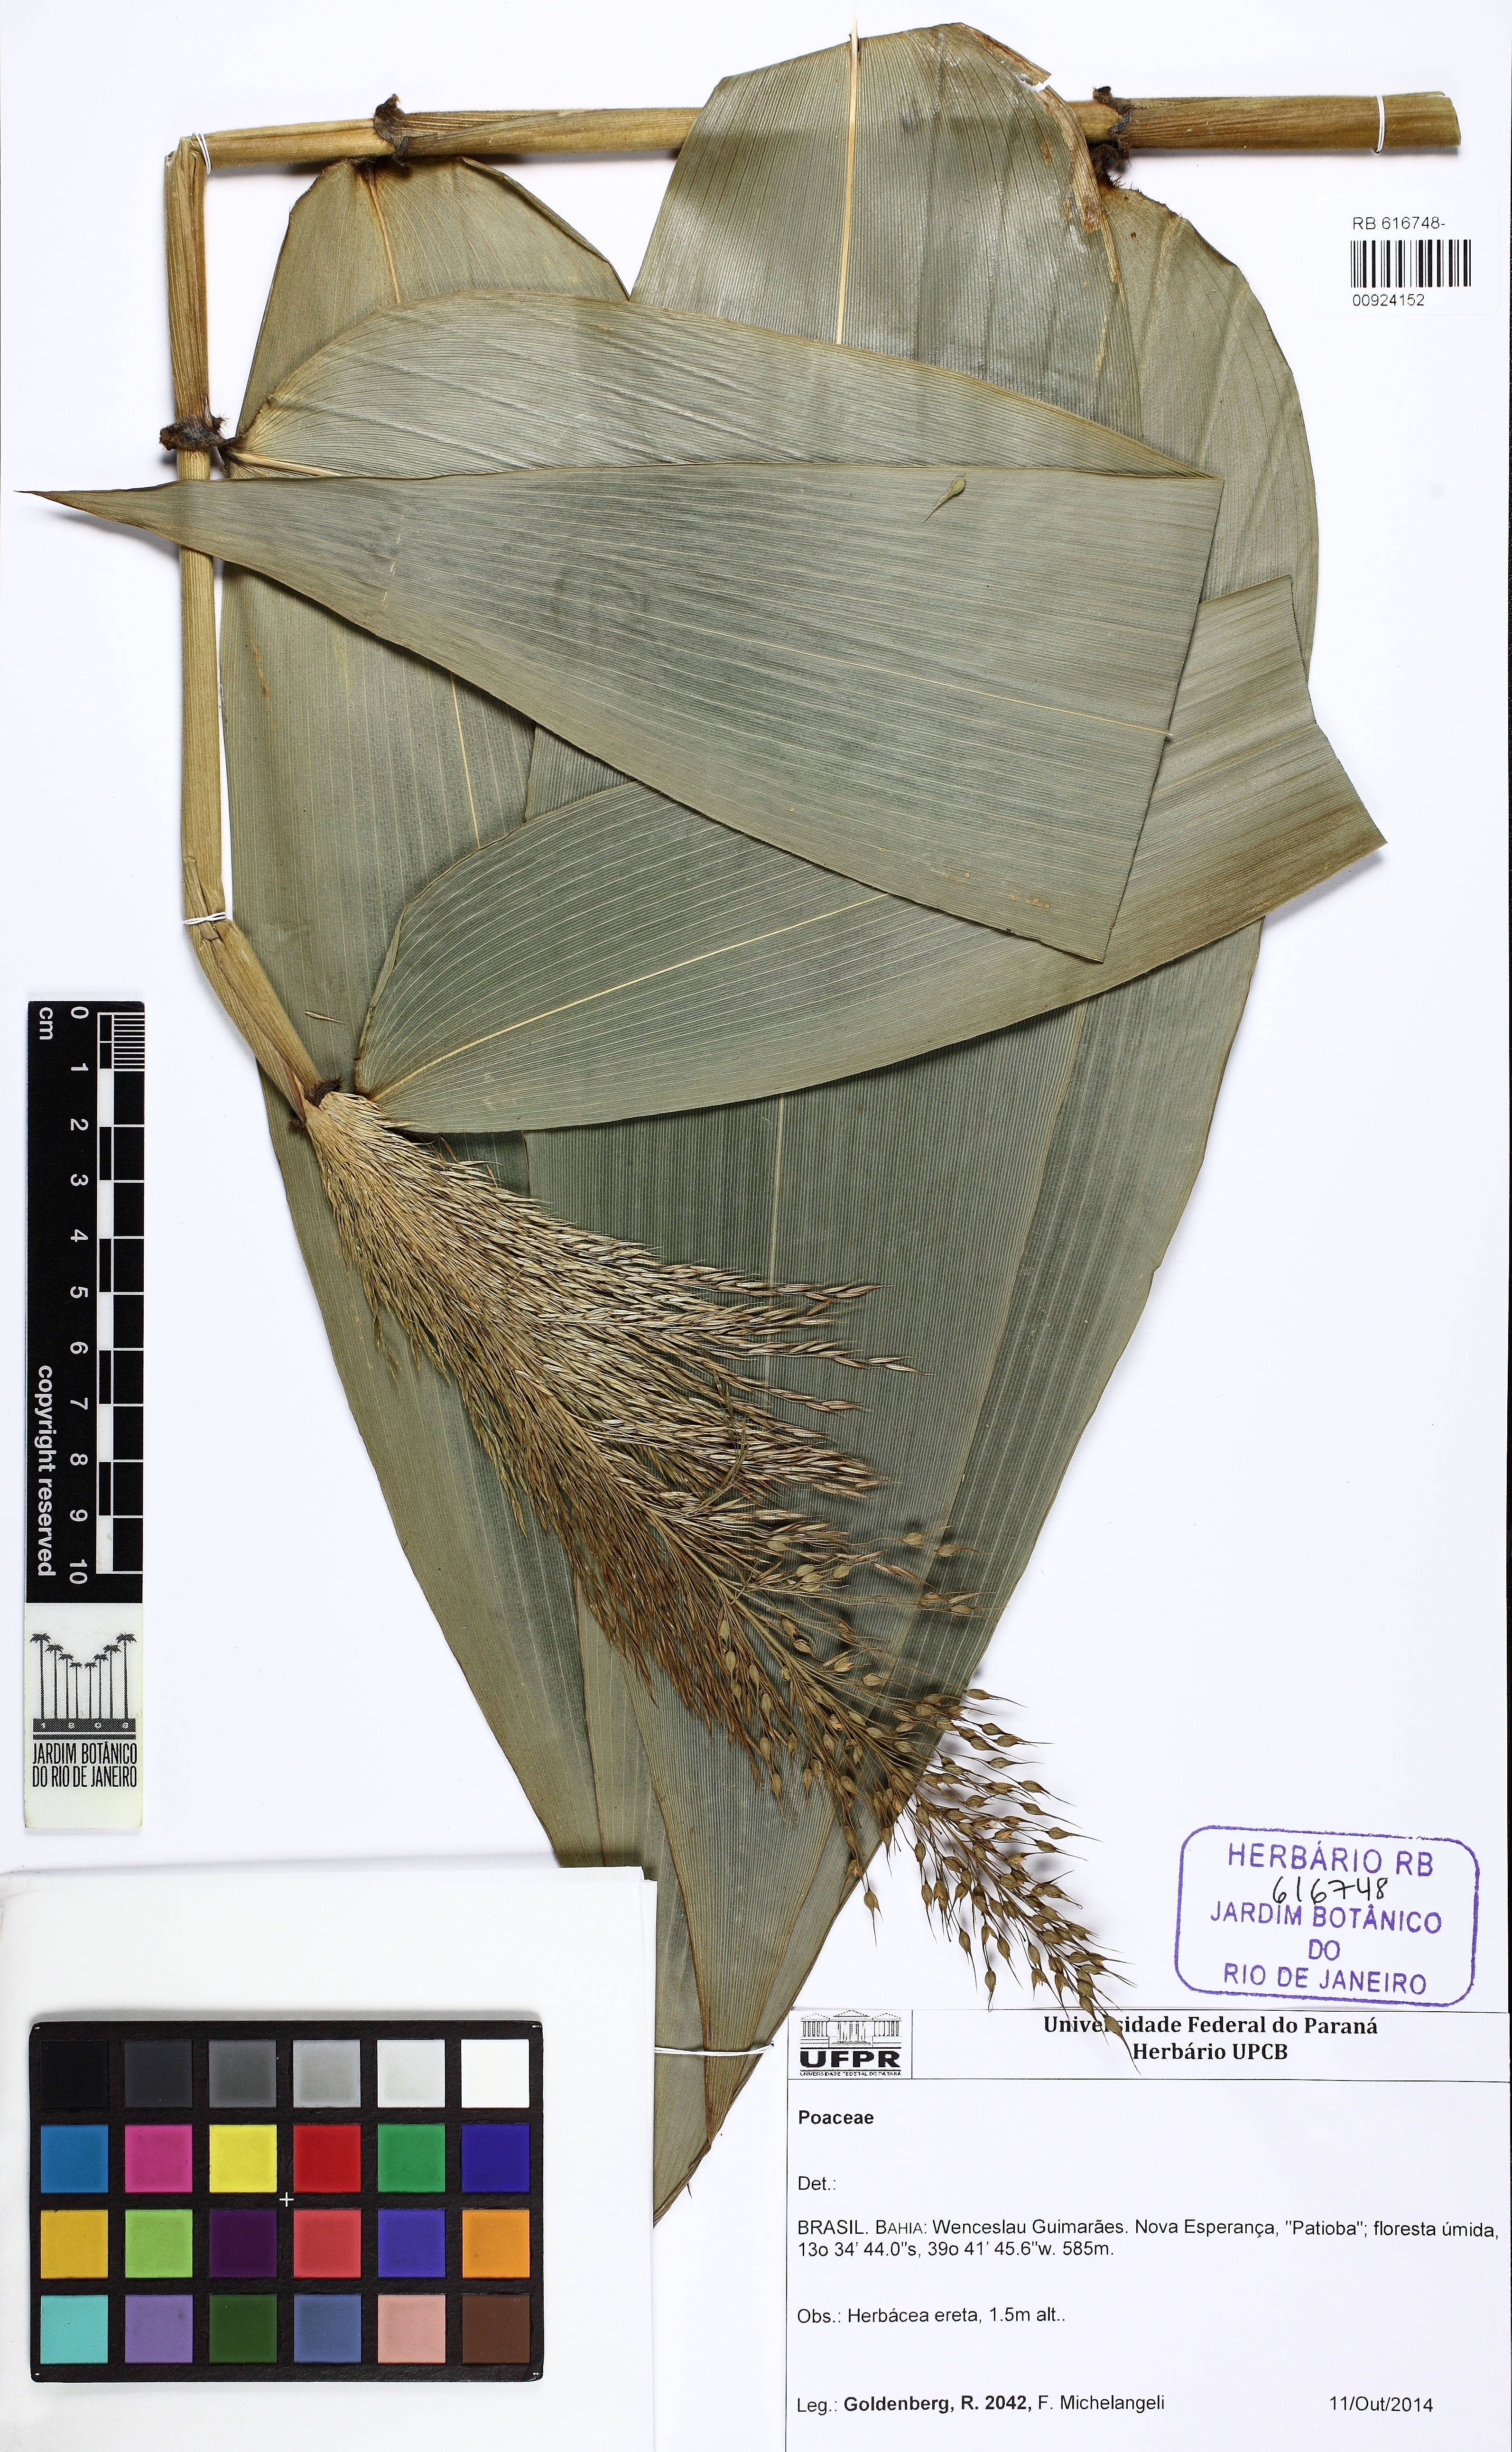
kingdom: Plantae
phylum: Tracheophyta
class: Liliopsida
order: Poales
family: Poaceae
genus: Taquara
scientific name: Taquara micrantha
